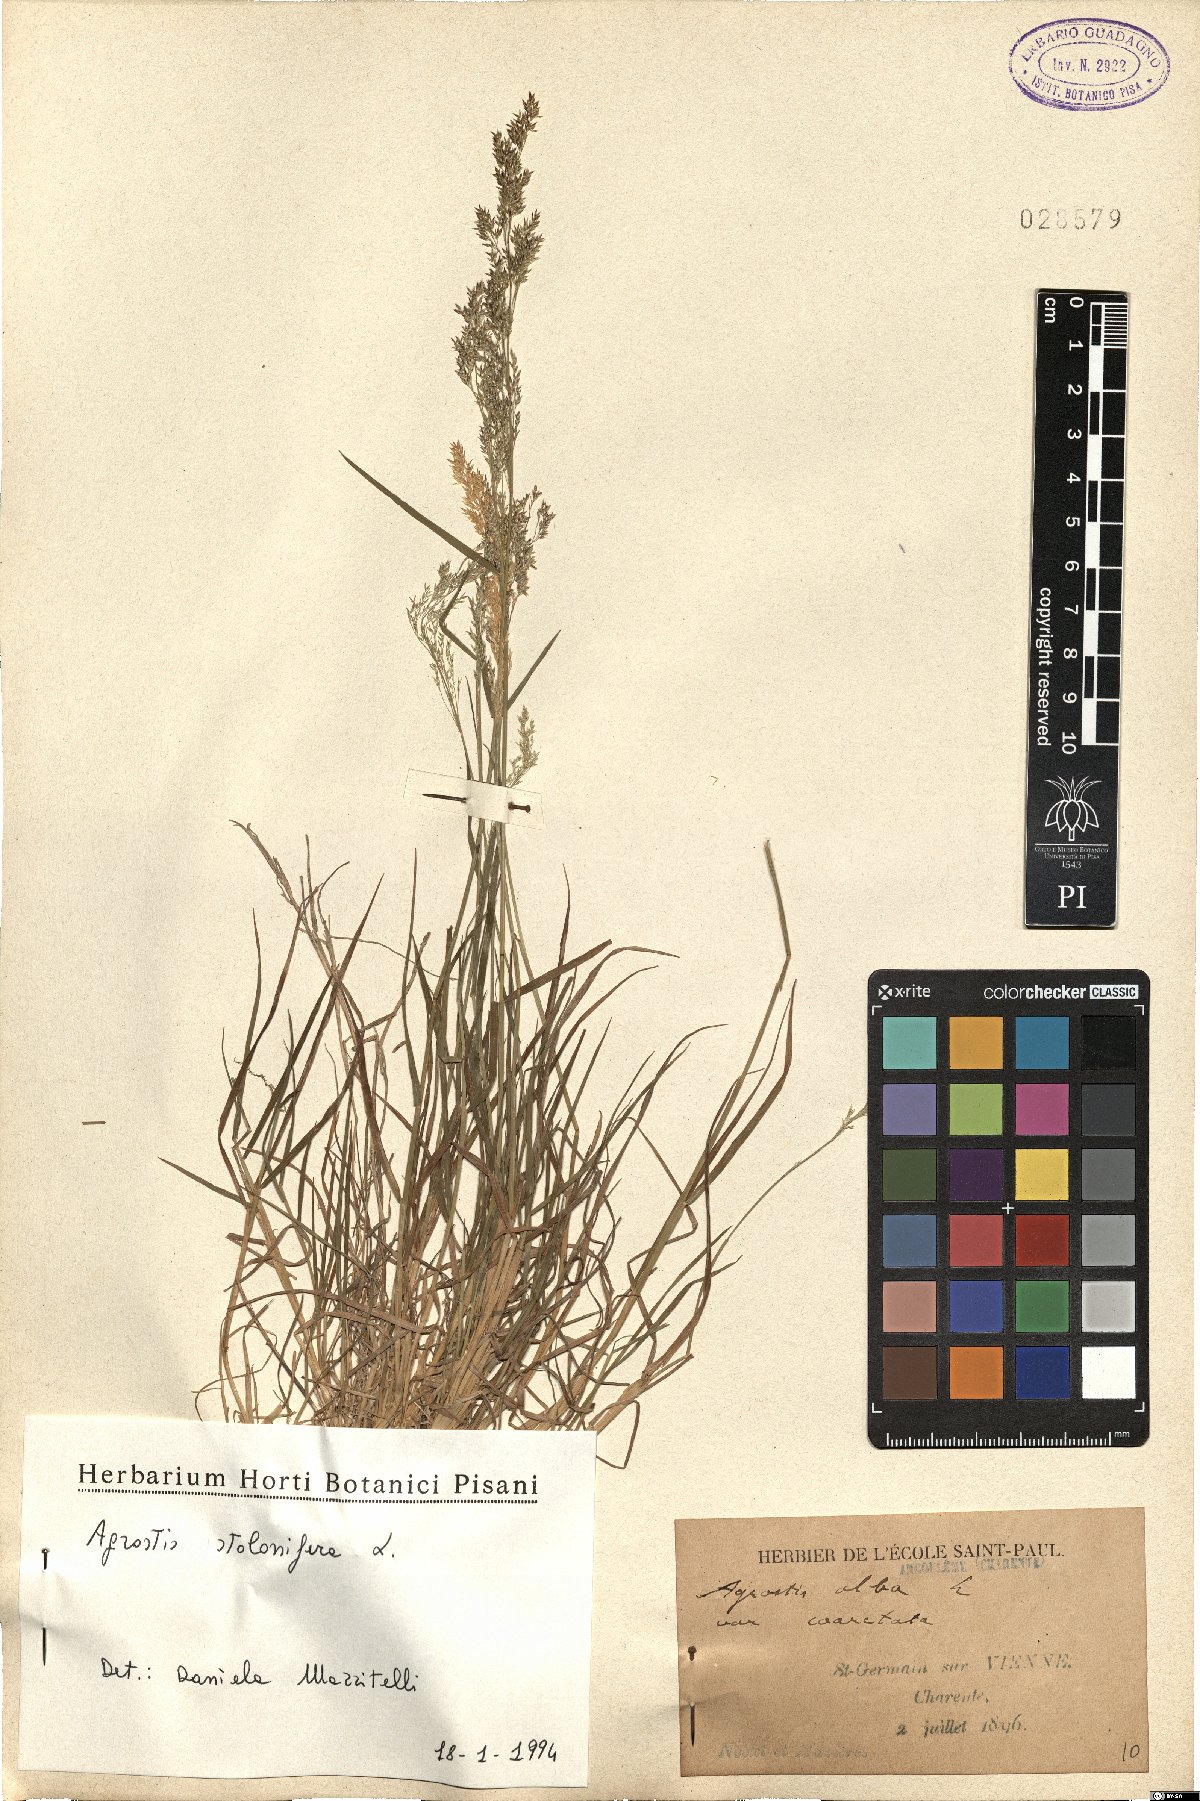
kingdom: Plantae
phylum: Tracheophyta
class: Liliopsida
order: Poales
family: Poaceae
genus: Agrostis
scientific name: Agrostis stolonifera
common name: Creeping bentgrass
